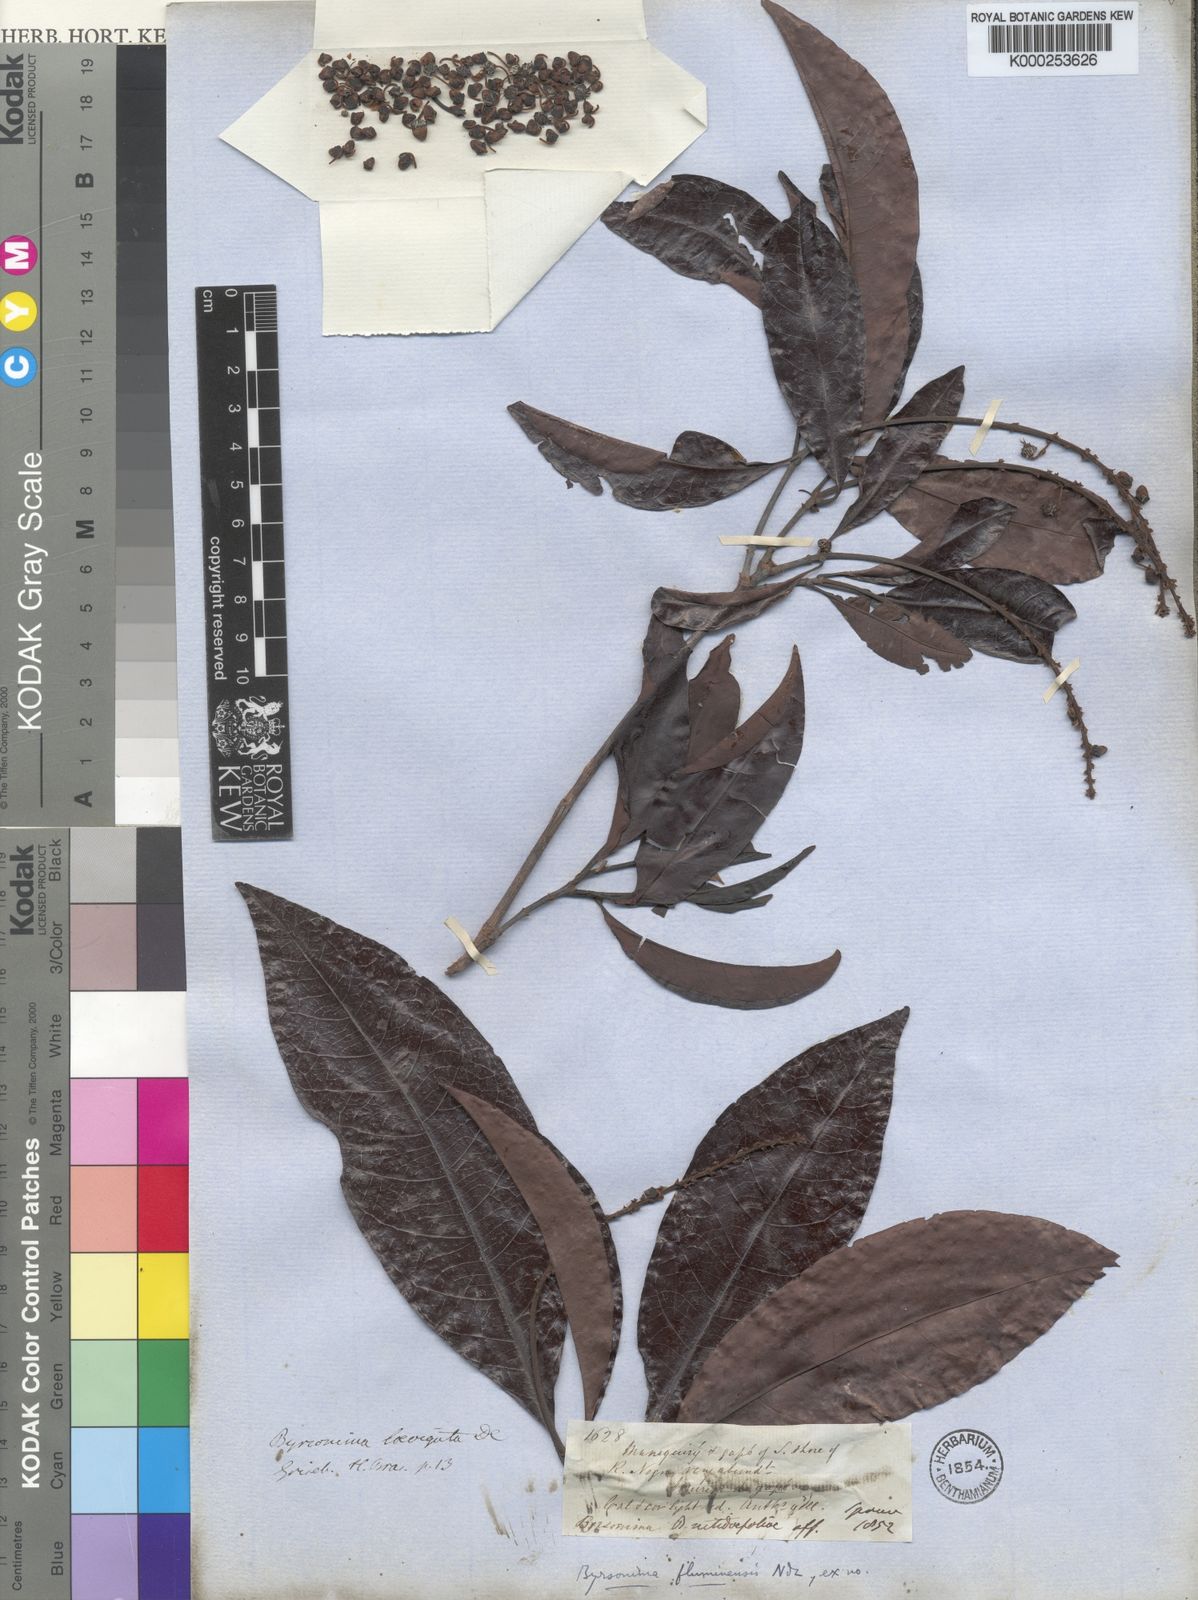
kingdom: Plantae
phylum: Tracheophyta
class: Magnoliopsida
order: Malpighiales
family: Malpighiaceae
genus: Byrsonima
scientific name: Byrsonima japurensis
